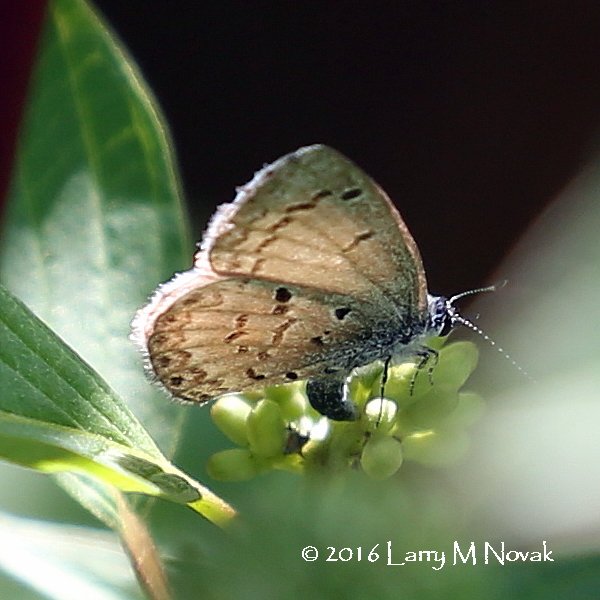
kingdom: Animalia
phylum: Arthropoda
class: Insecta
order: Lepidoptera
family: Lycaenidae
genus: Celastrina
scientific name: Celastrina lucia
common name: Northern Spring Azure
